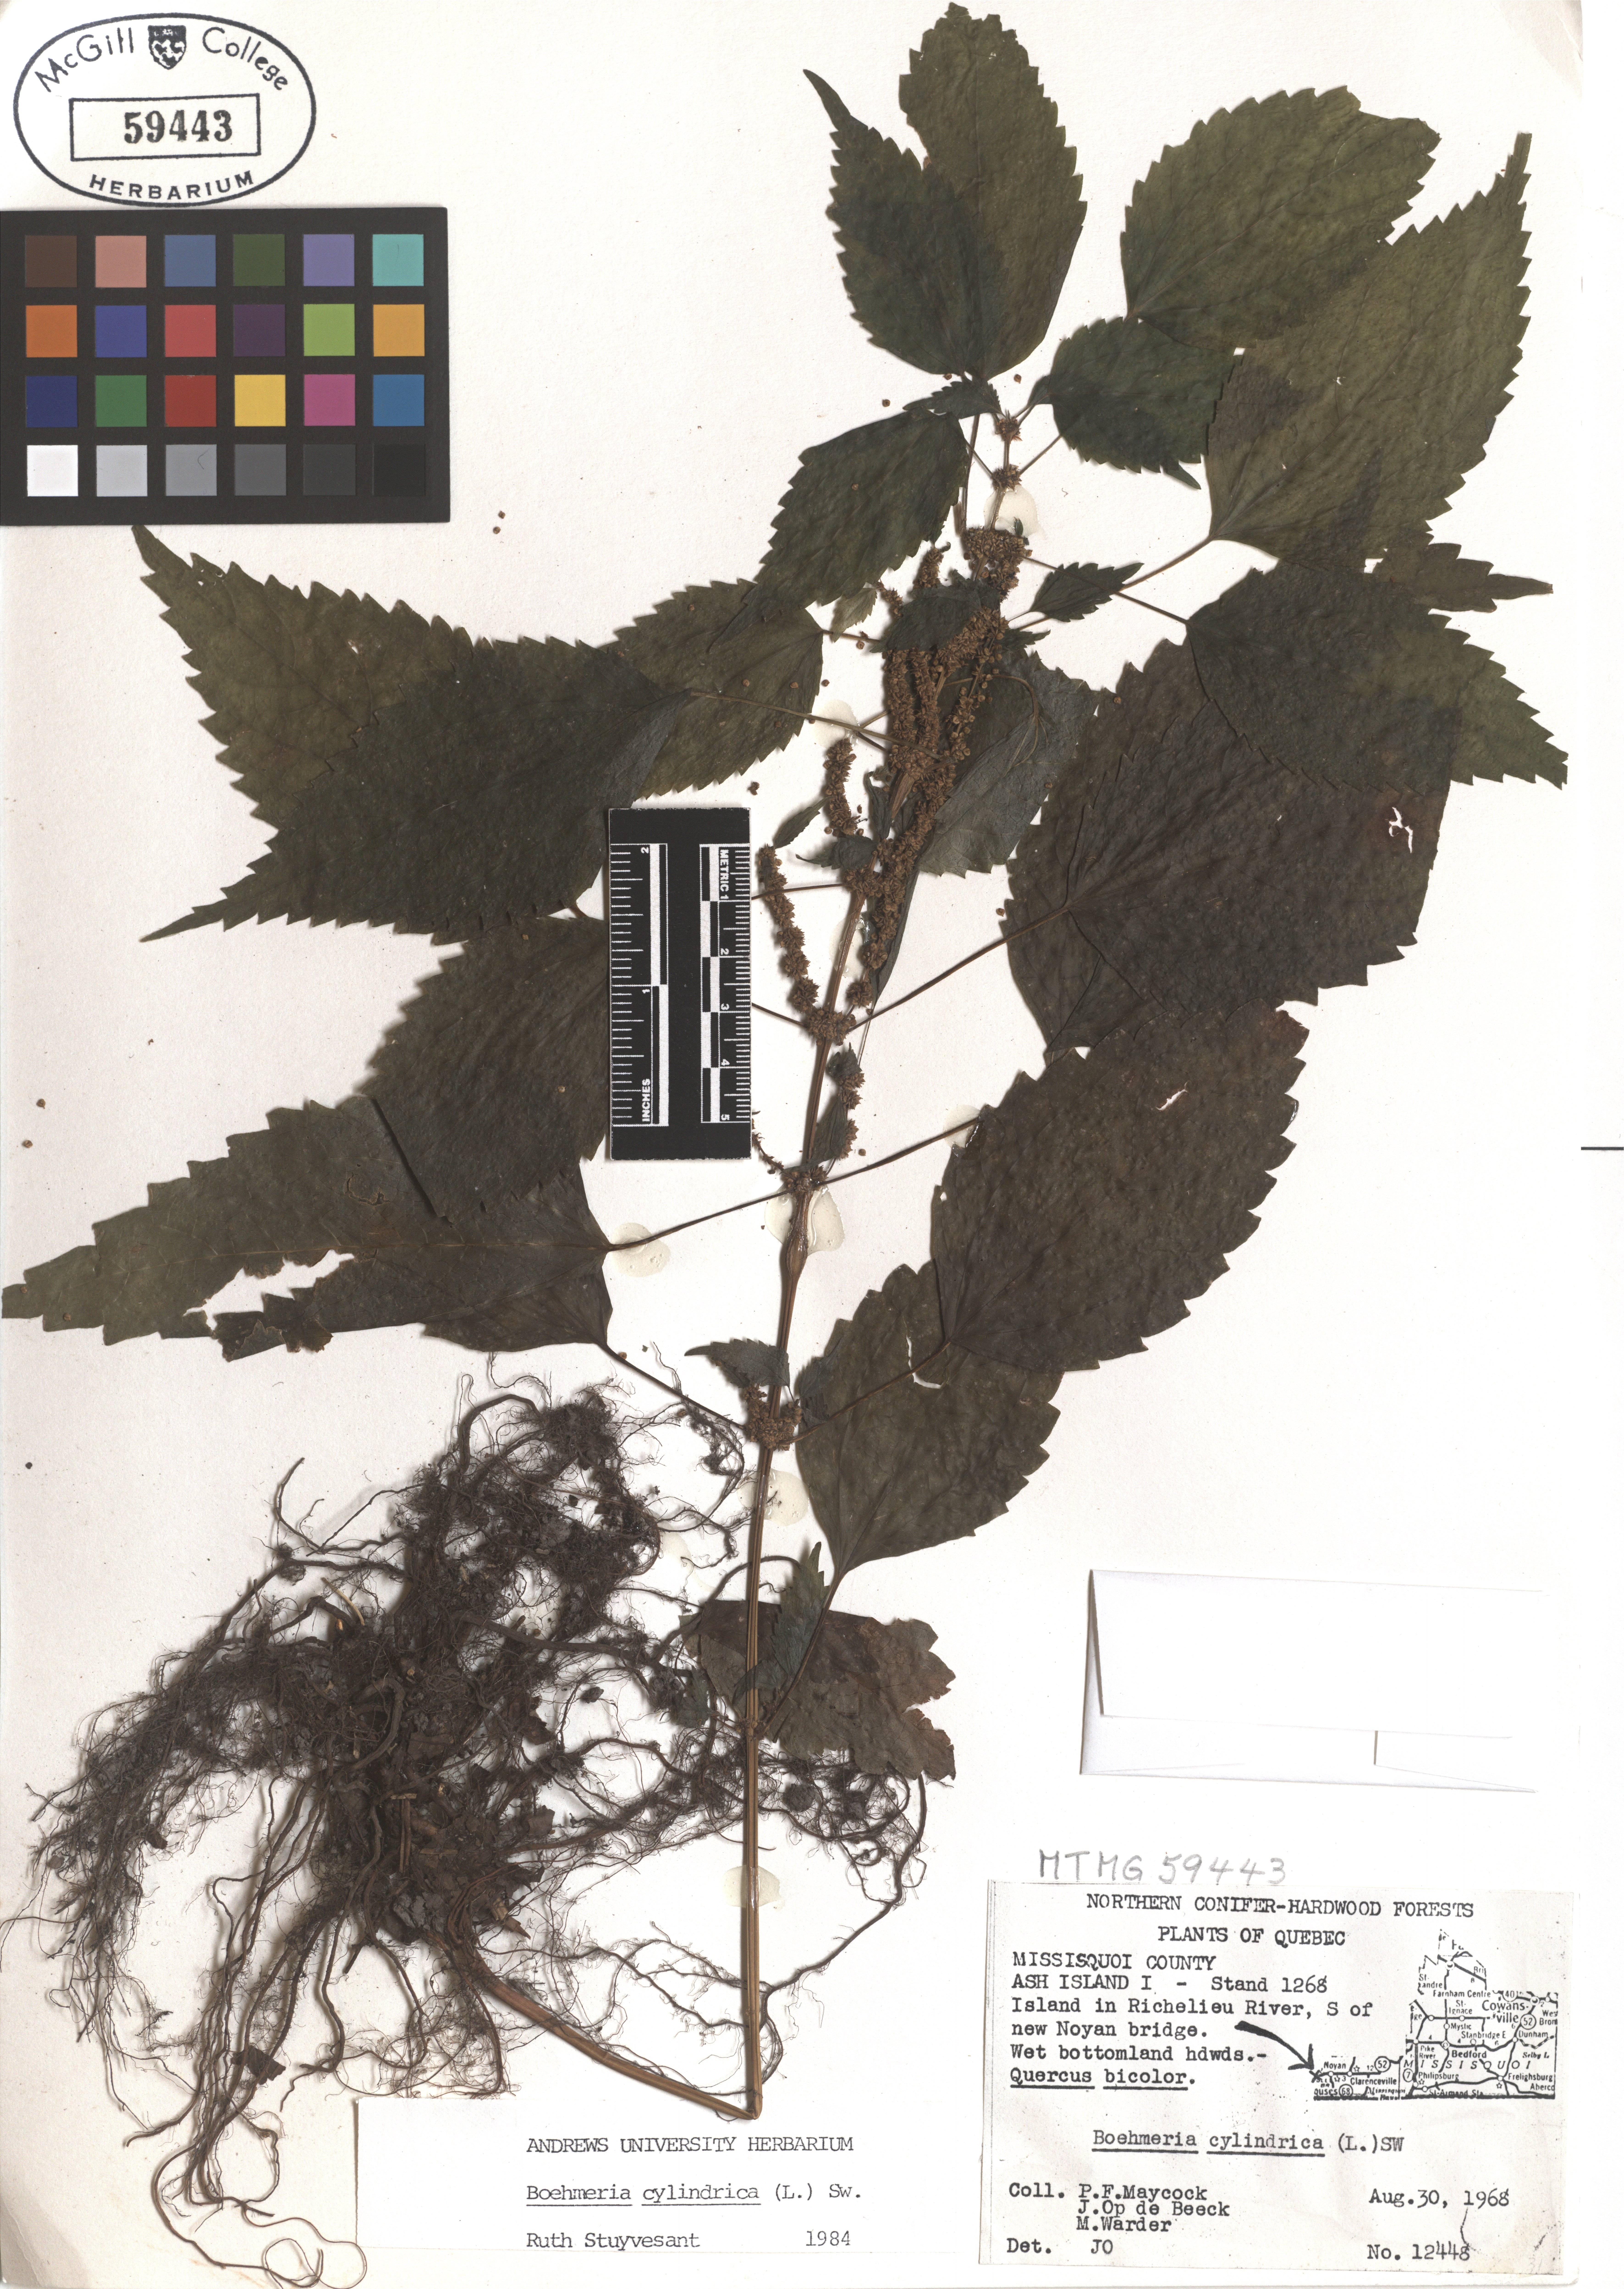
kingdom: Plantae
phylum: Tracheophyta
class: Magnoliopsida
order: Rosales
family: Urticaceae
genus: Boehmeria
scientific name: Boehmeria cylindrica
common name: Bog-hemp
